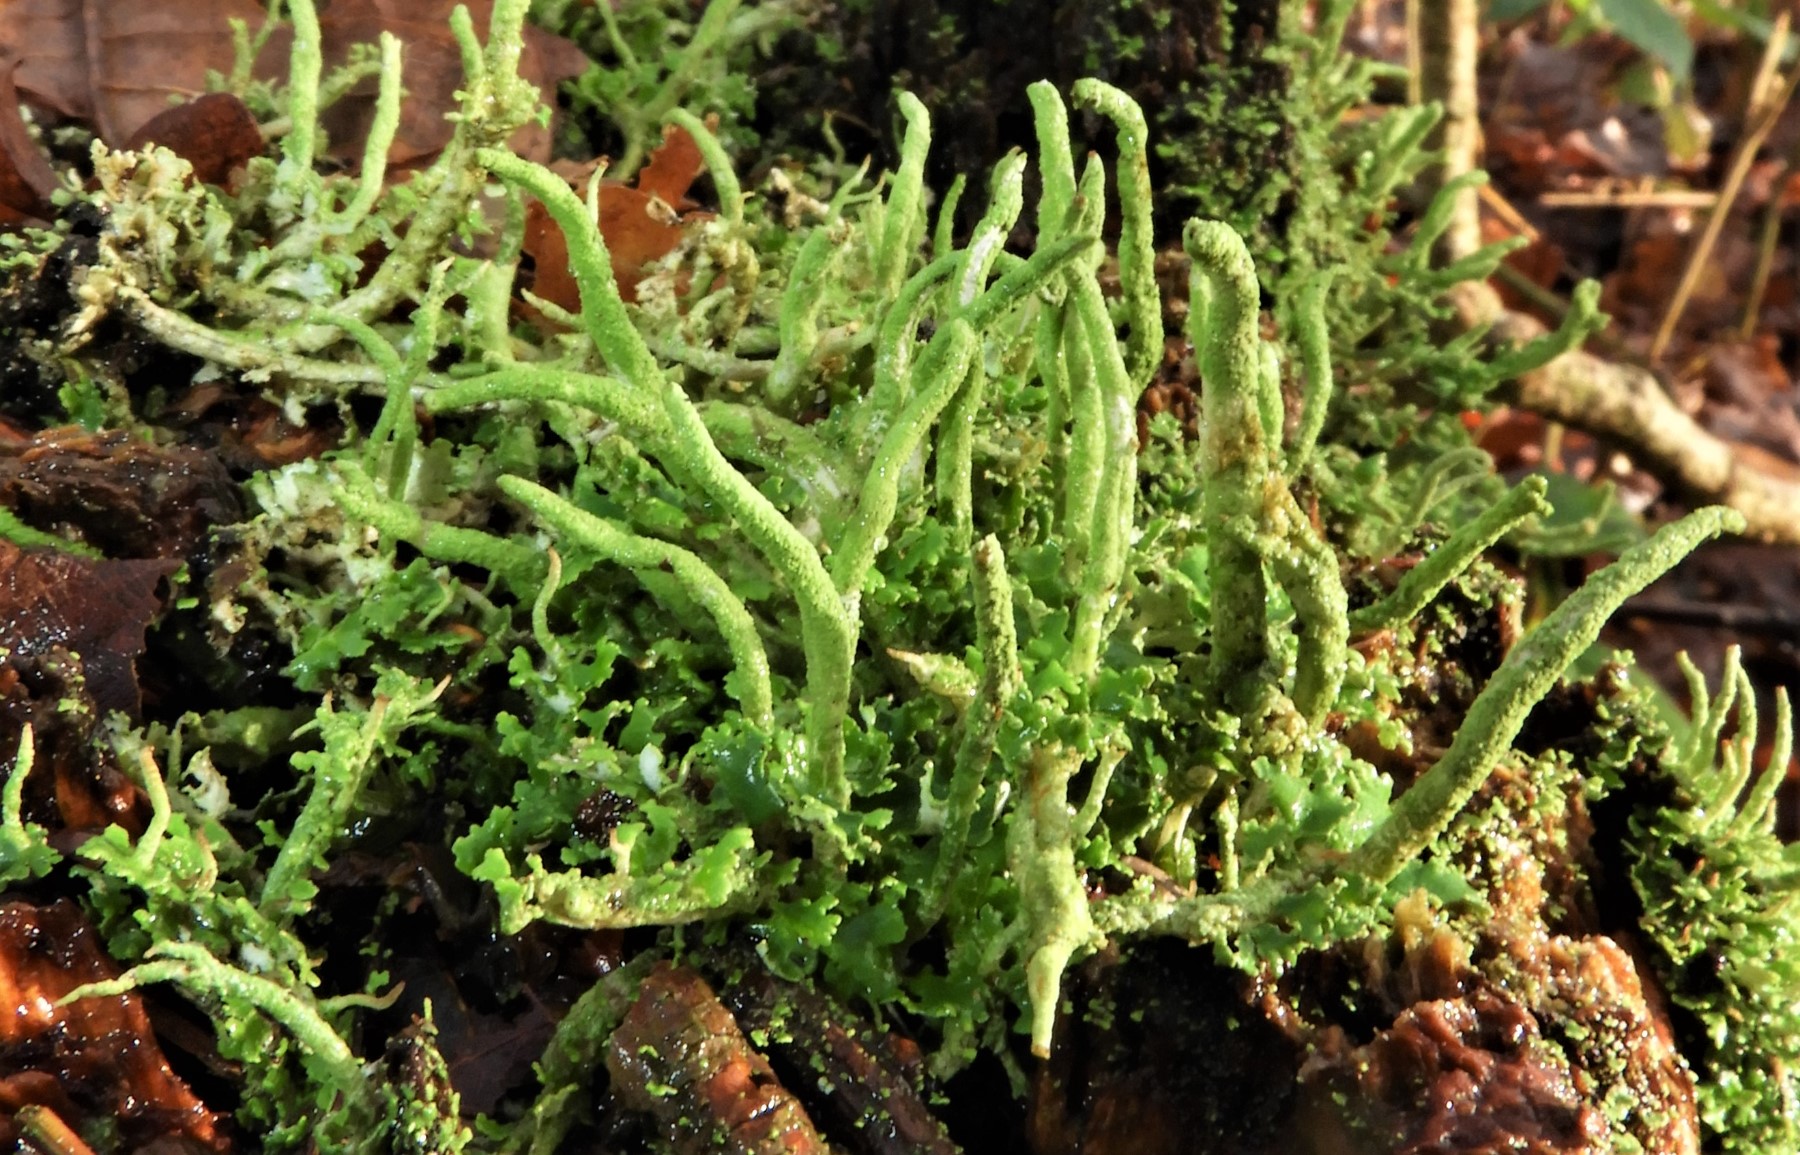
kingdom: Fungi
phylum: Ascomycota
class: Lecanoromycetes
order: Lecanorales
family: Cladoniaceae
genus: Cladonia
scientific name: Cladonia
